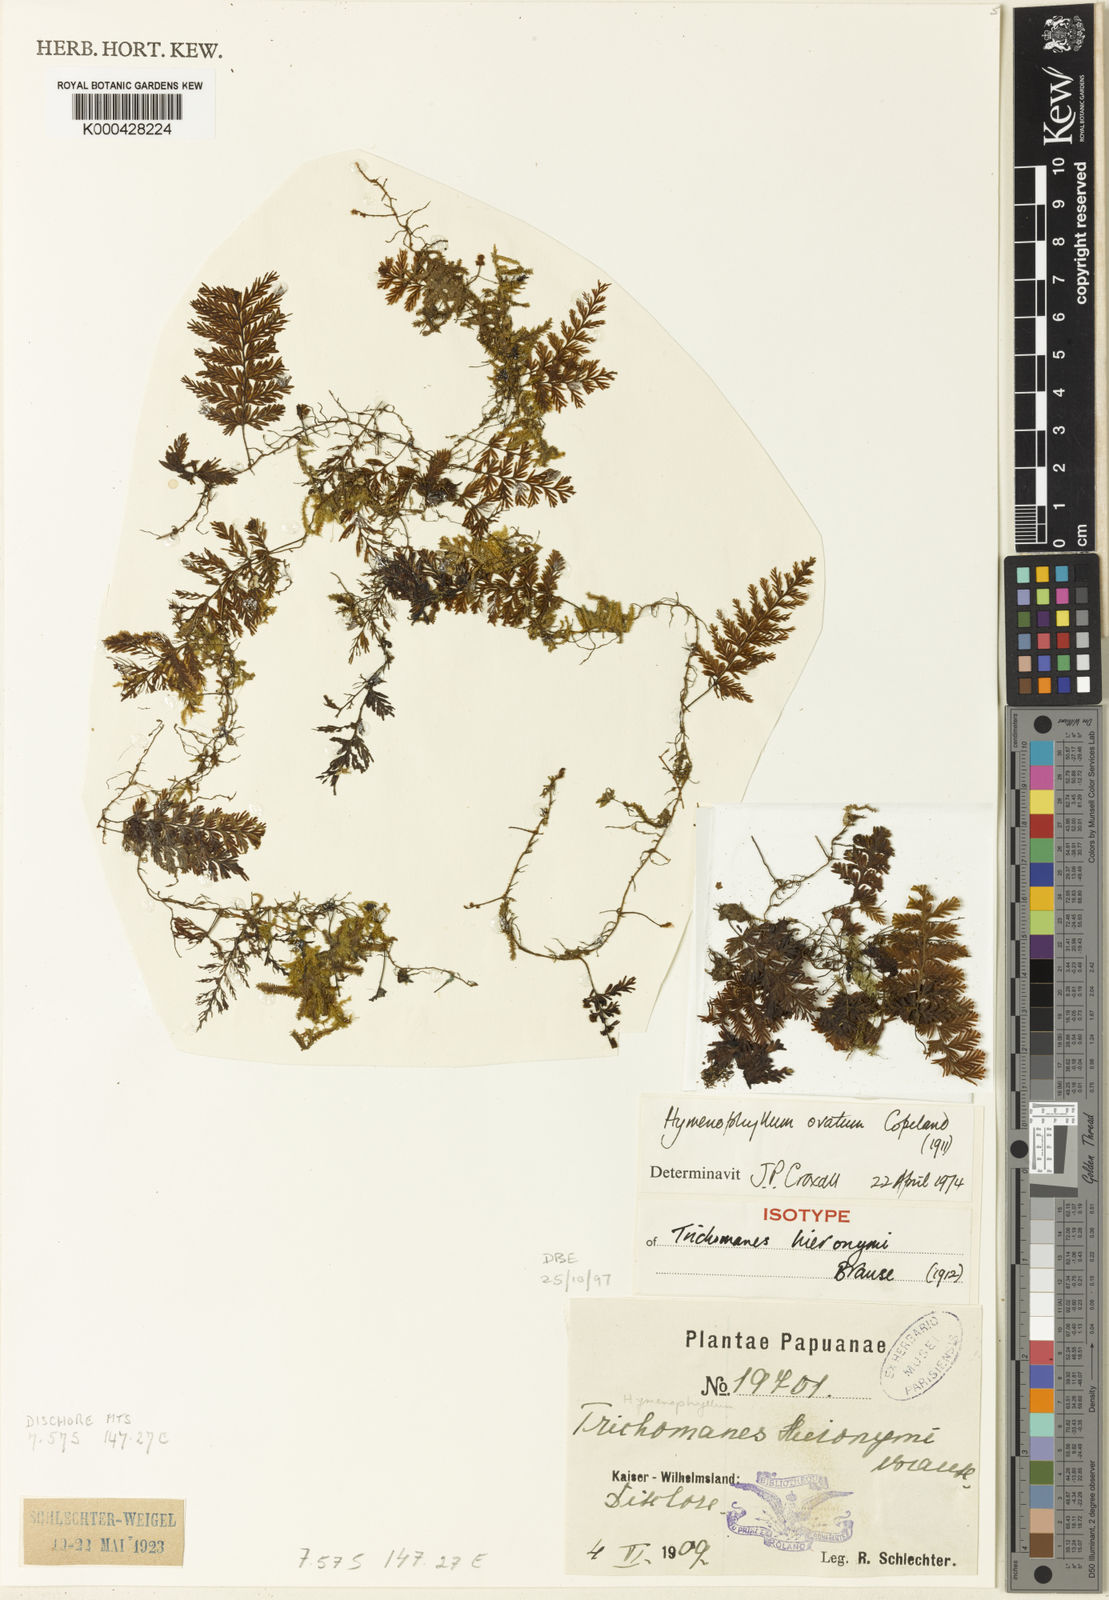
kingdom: Plantae
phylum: Tracheophyta
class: Polypodiopsida
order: Hymenophyllales
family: Hymenophyllaceae
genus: Hymenophyllum
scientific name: Hymenophyllum ovatum
